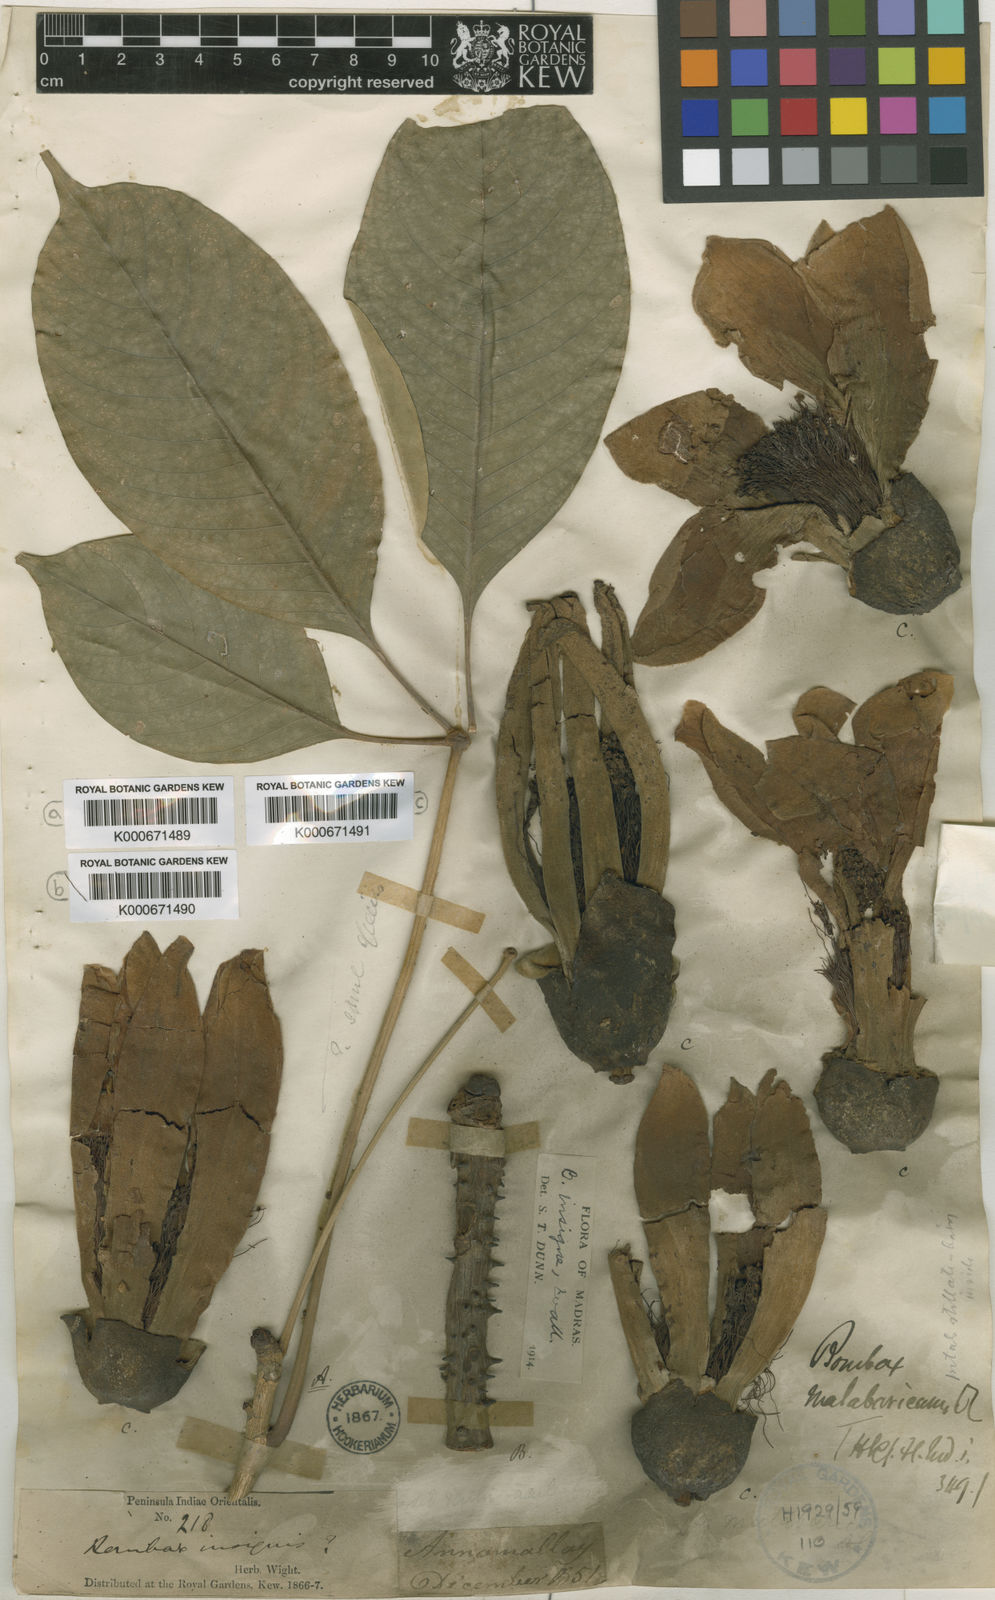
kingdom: Plantae
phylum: Tracheophyta
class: Magnoliopsida
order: Malvales
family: Malvaceae
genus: Bombax
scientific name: Bombax insigne
